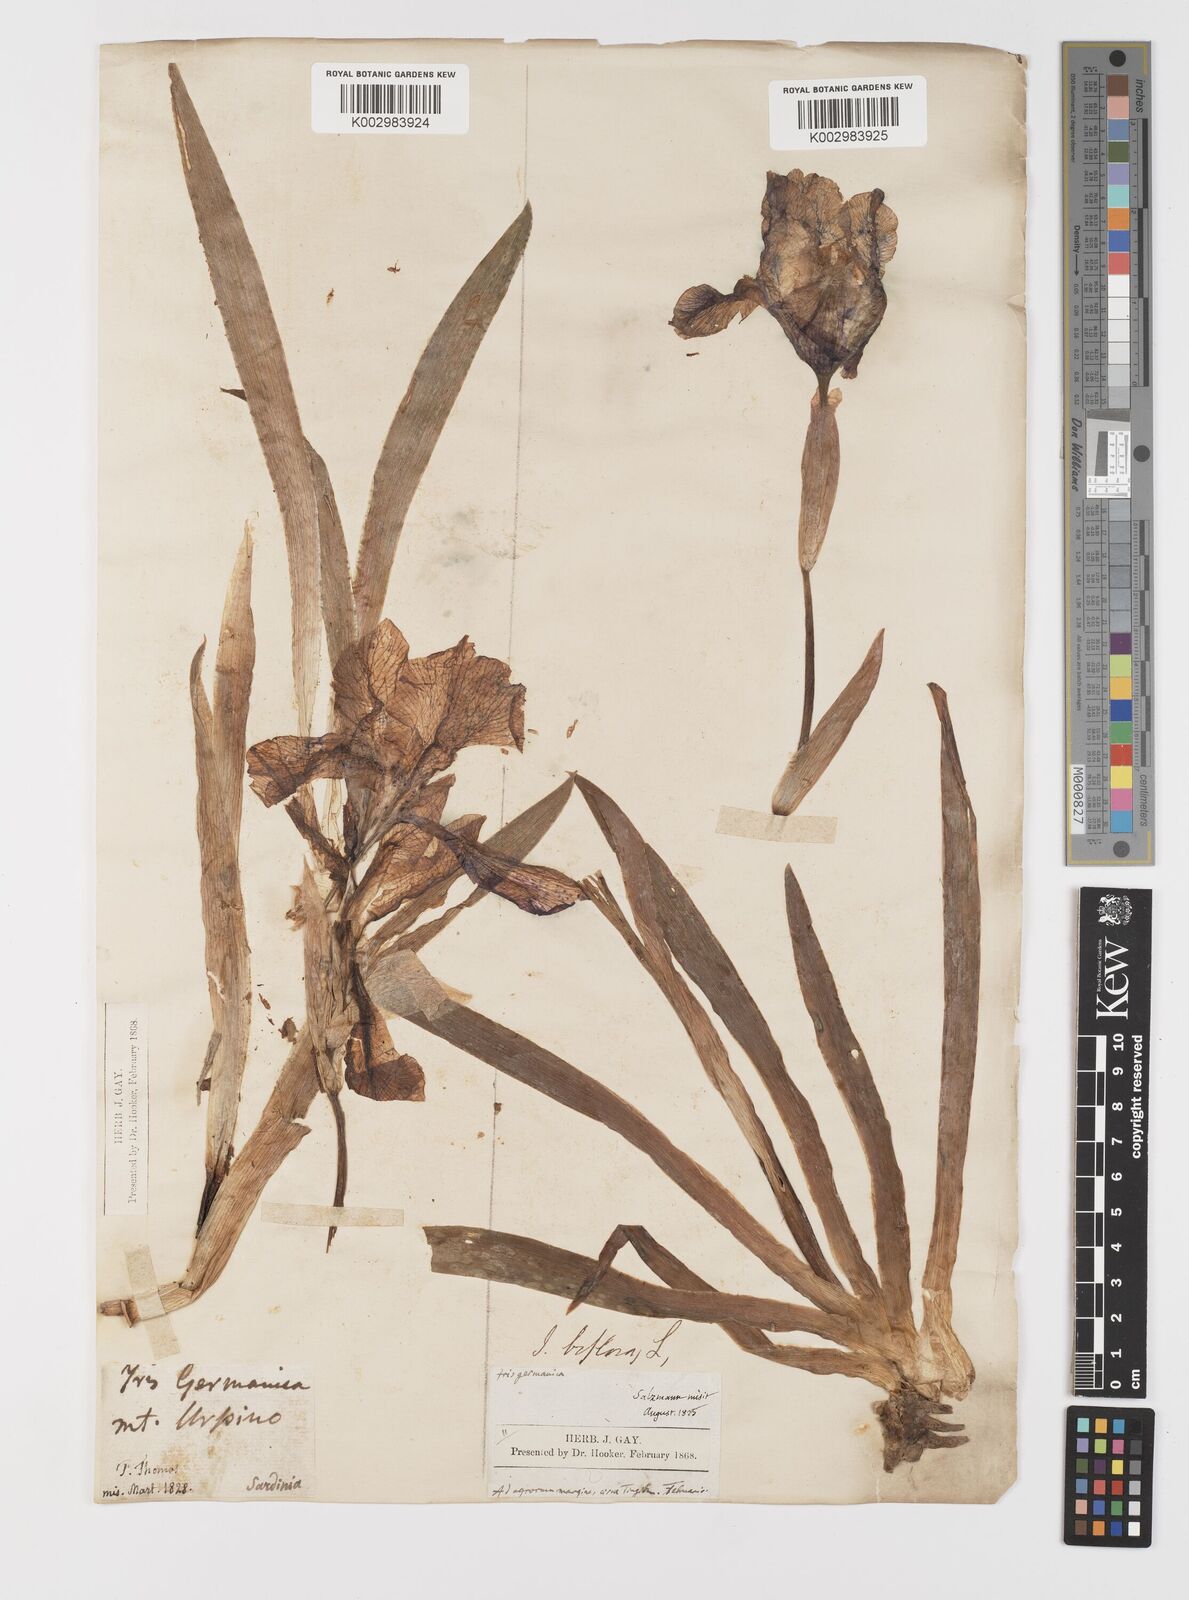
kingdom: Plantae
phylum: Tracheophyta
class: Liliopsida
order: Asparagales
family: Iridaceae
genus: Iris
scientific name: Iris germanica
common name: German iris
